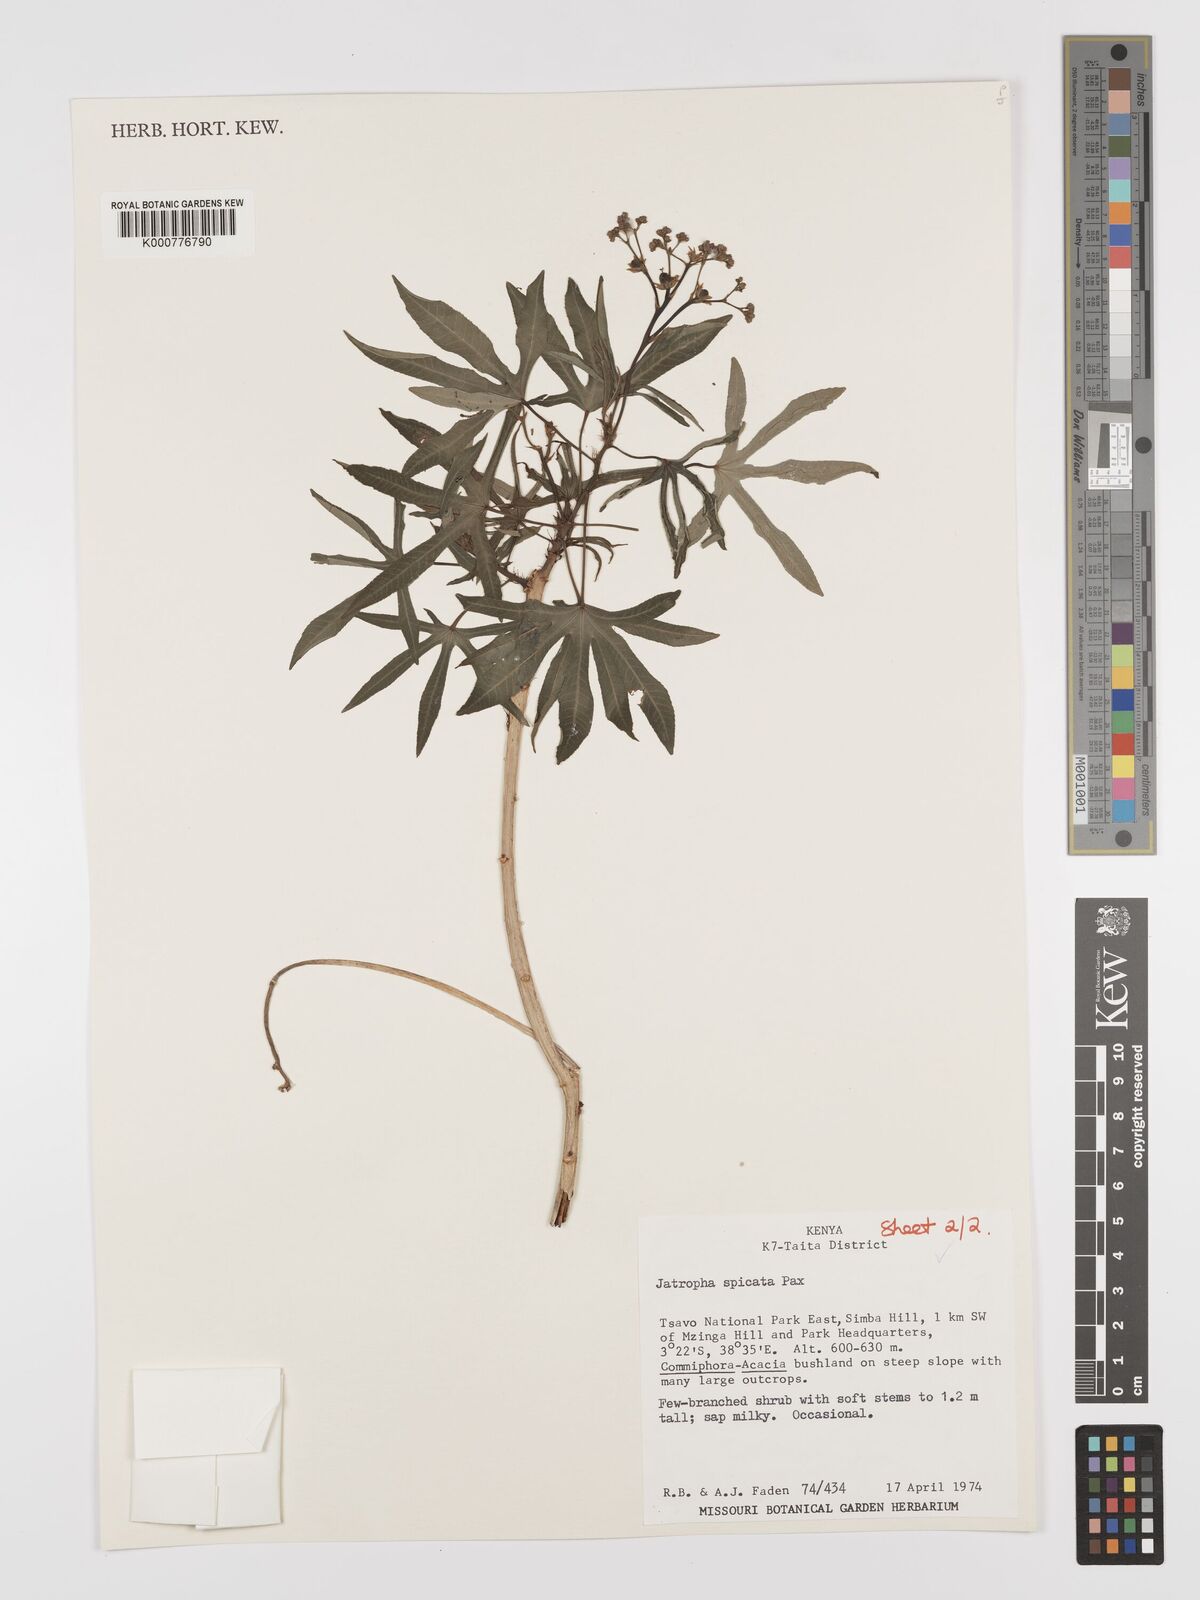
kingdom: Plantae
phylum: Tracheophyta
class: Magnoliopsida
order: Malpighiales
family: Euphorbiaceae
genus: Jatropha
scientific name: Jatropha spicata
